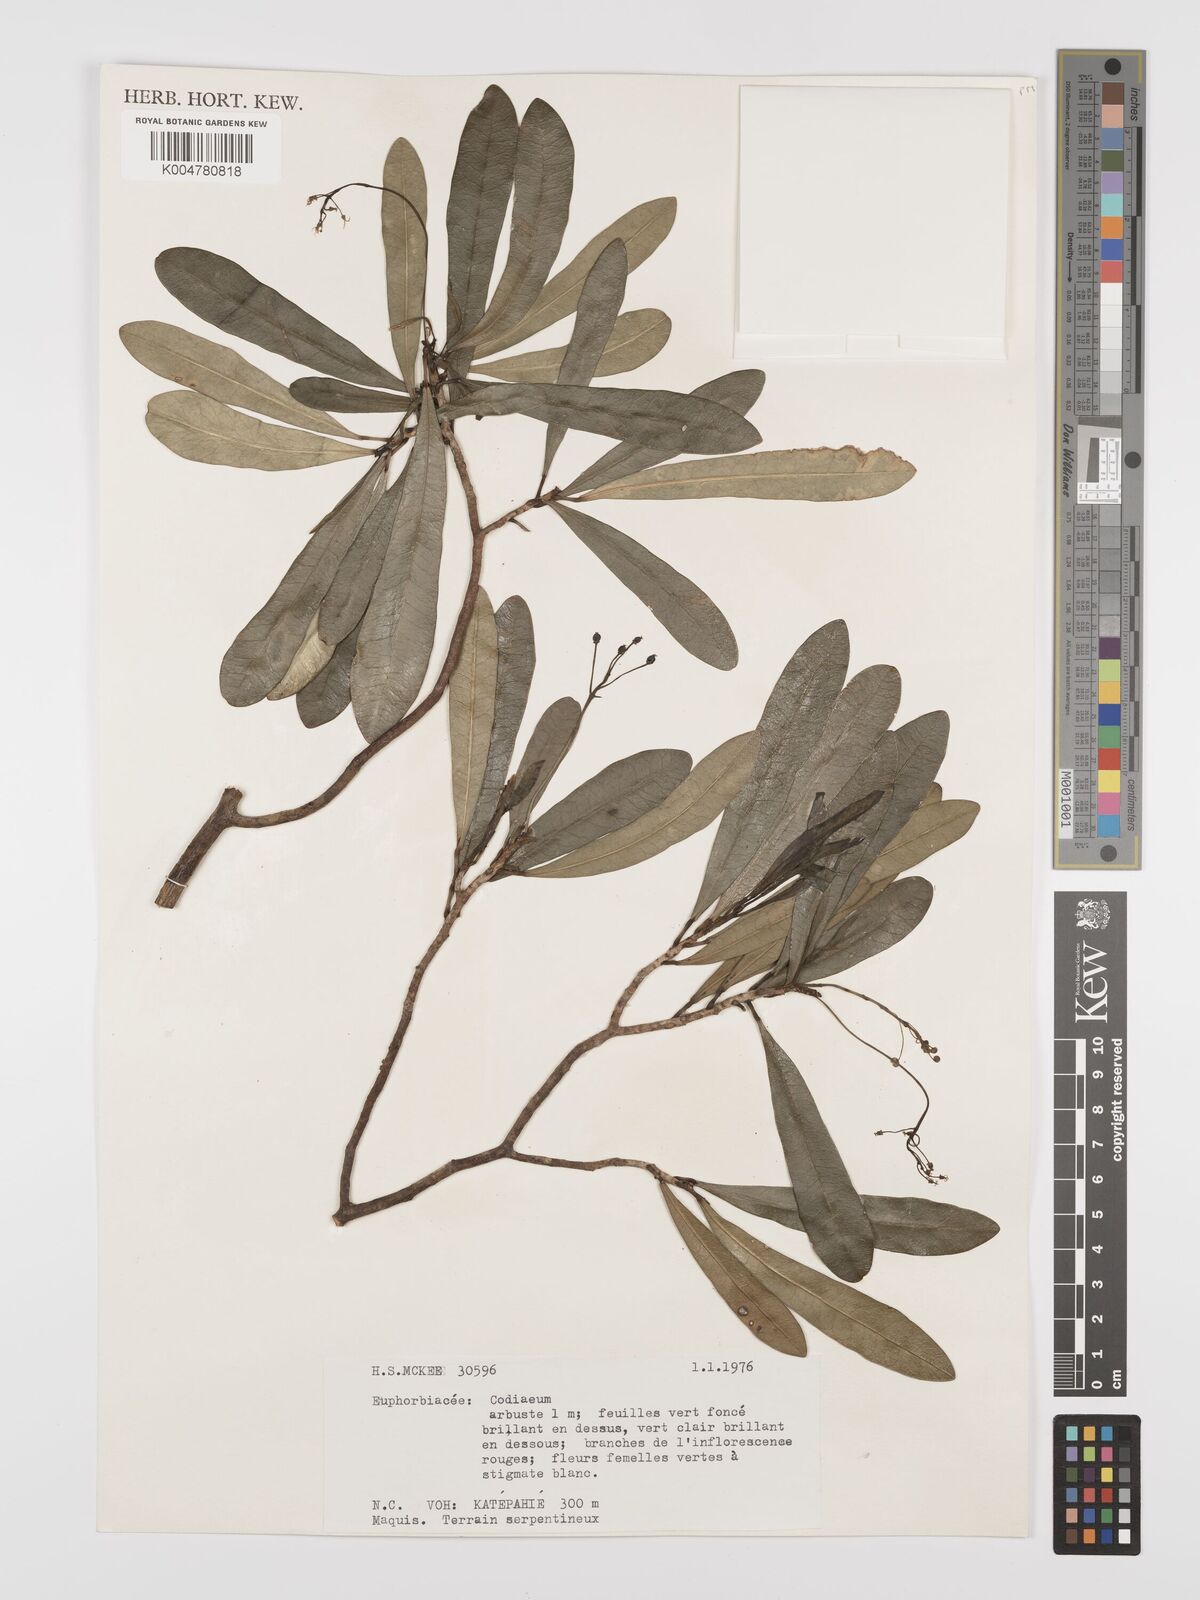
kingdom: Plantae
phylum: Tracheophyta
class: Magnoliopsida
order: Malpighiales
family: Euphorbiaceae
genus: Codiaeum
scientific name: Codiaeum
